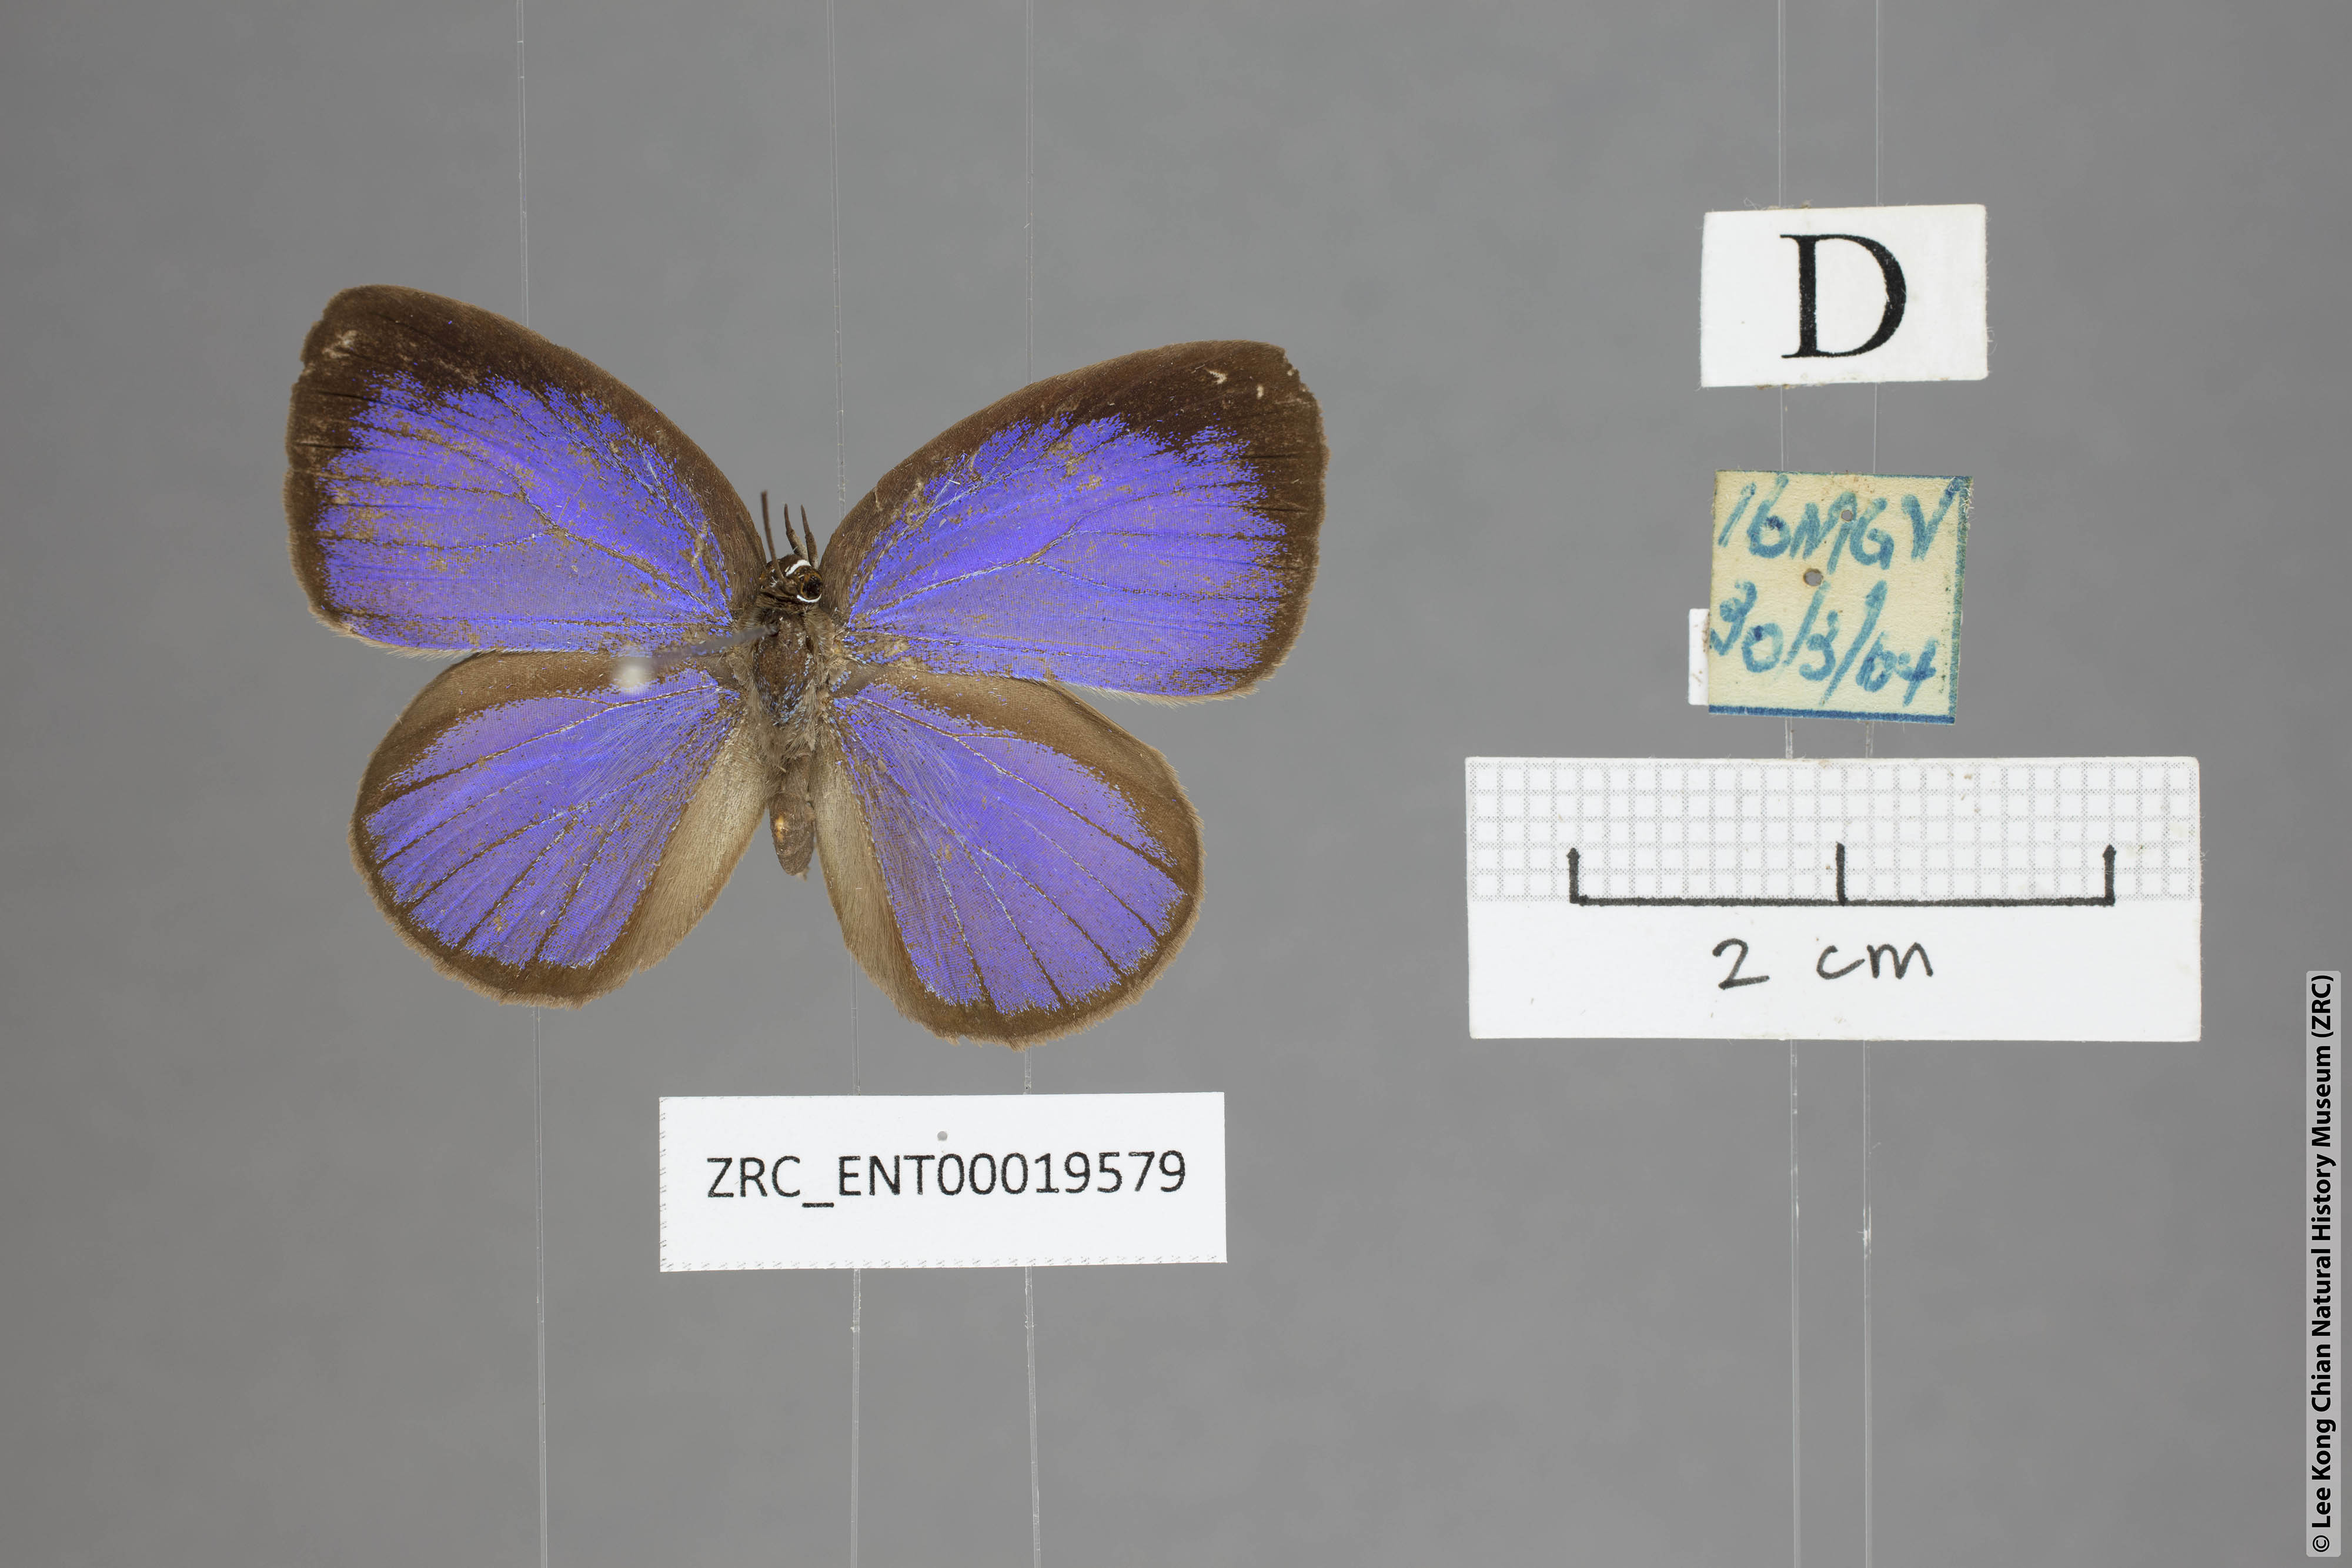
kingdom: Animalia
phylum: Arthropoda
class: Insecta
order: Lepidoptera
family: Lycaenidae
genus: Arhopala
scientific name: Arhopala inornata
